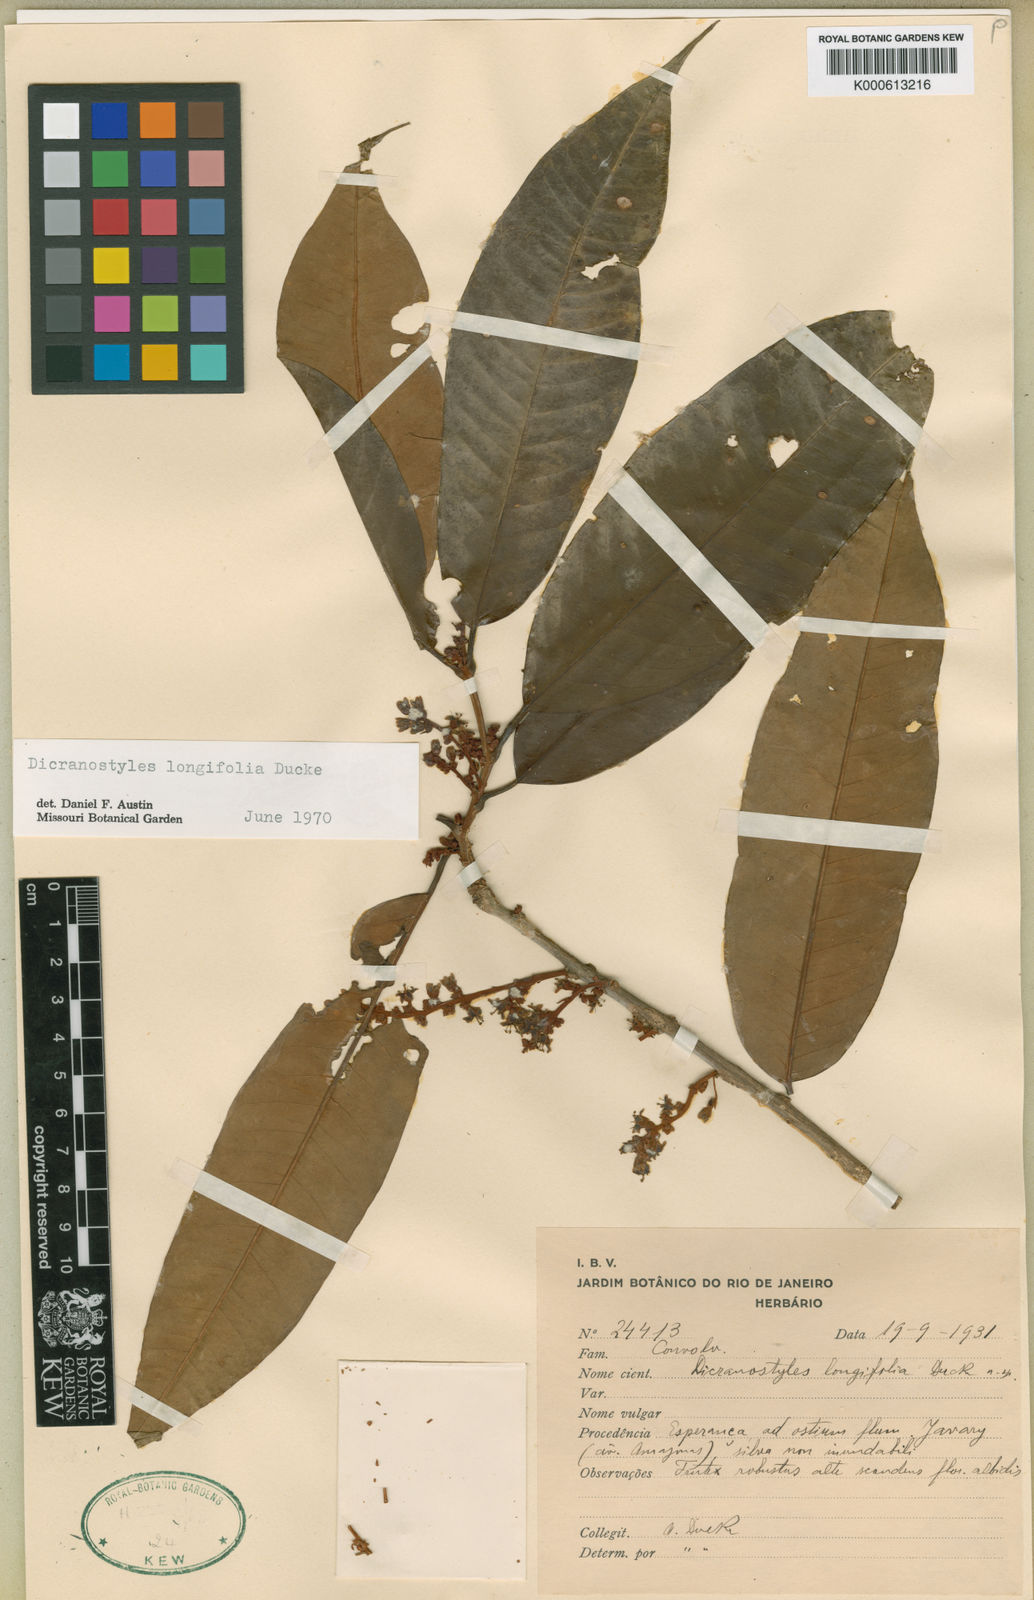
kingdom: Plantae
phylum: Tracheophyta
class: Magnoliopsida
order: Solanales
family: Convolvulaceae
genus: Dicranostyles
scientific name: Dicranostyles longifolia
